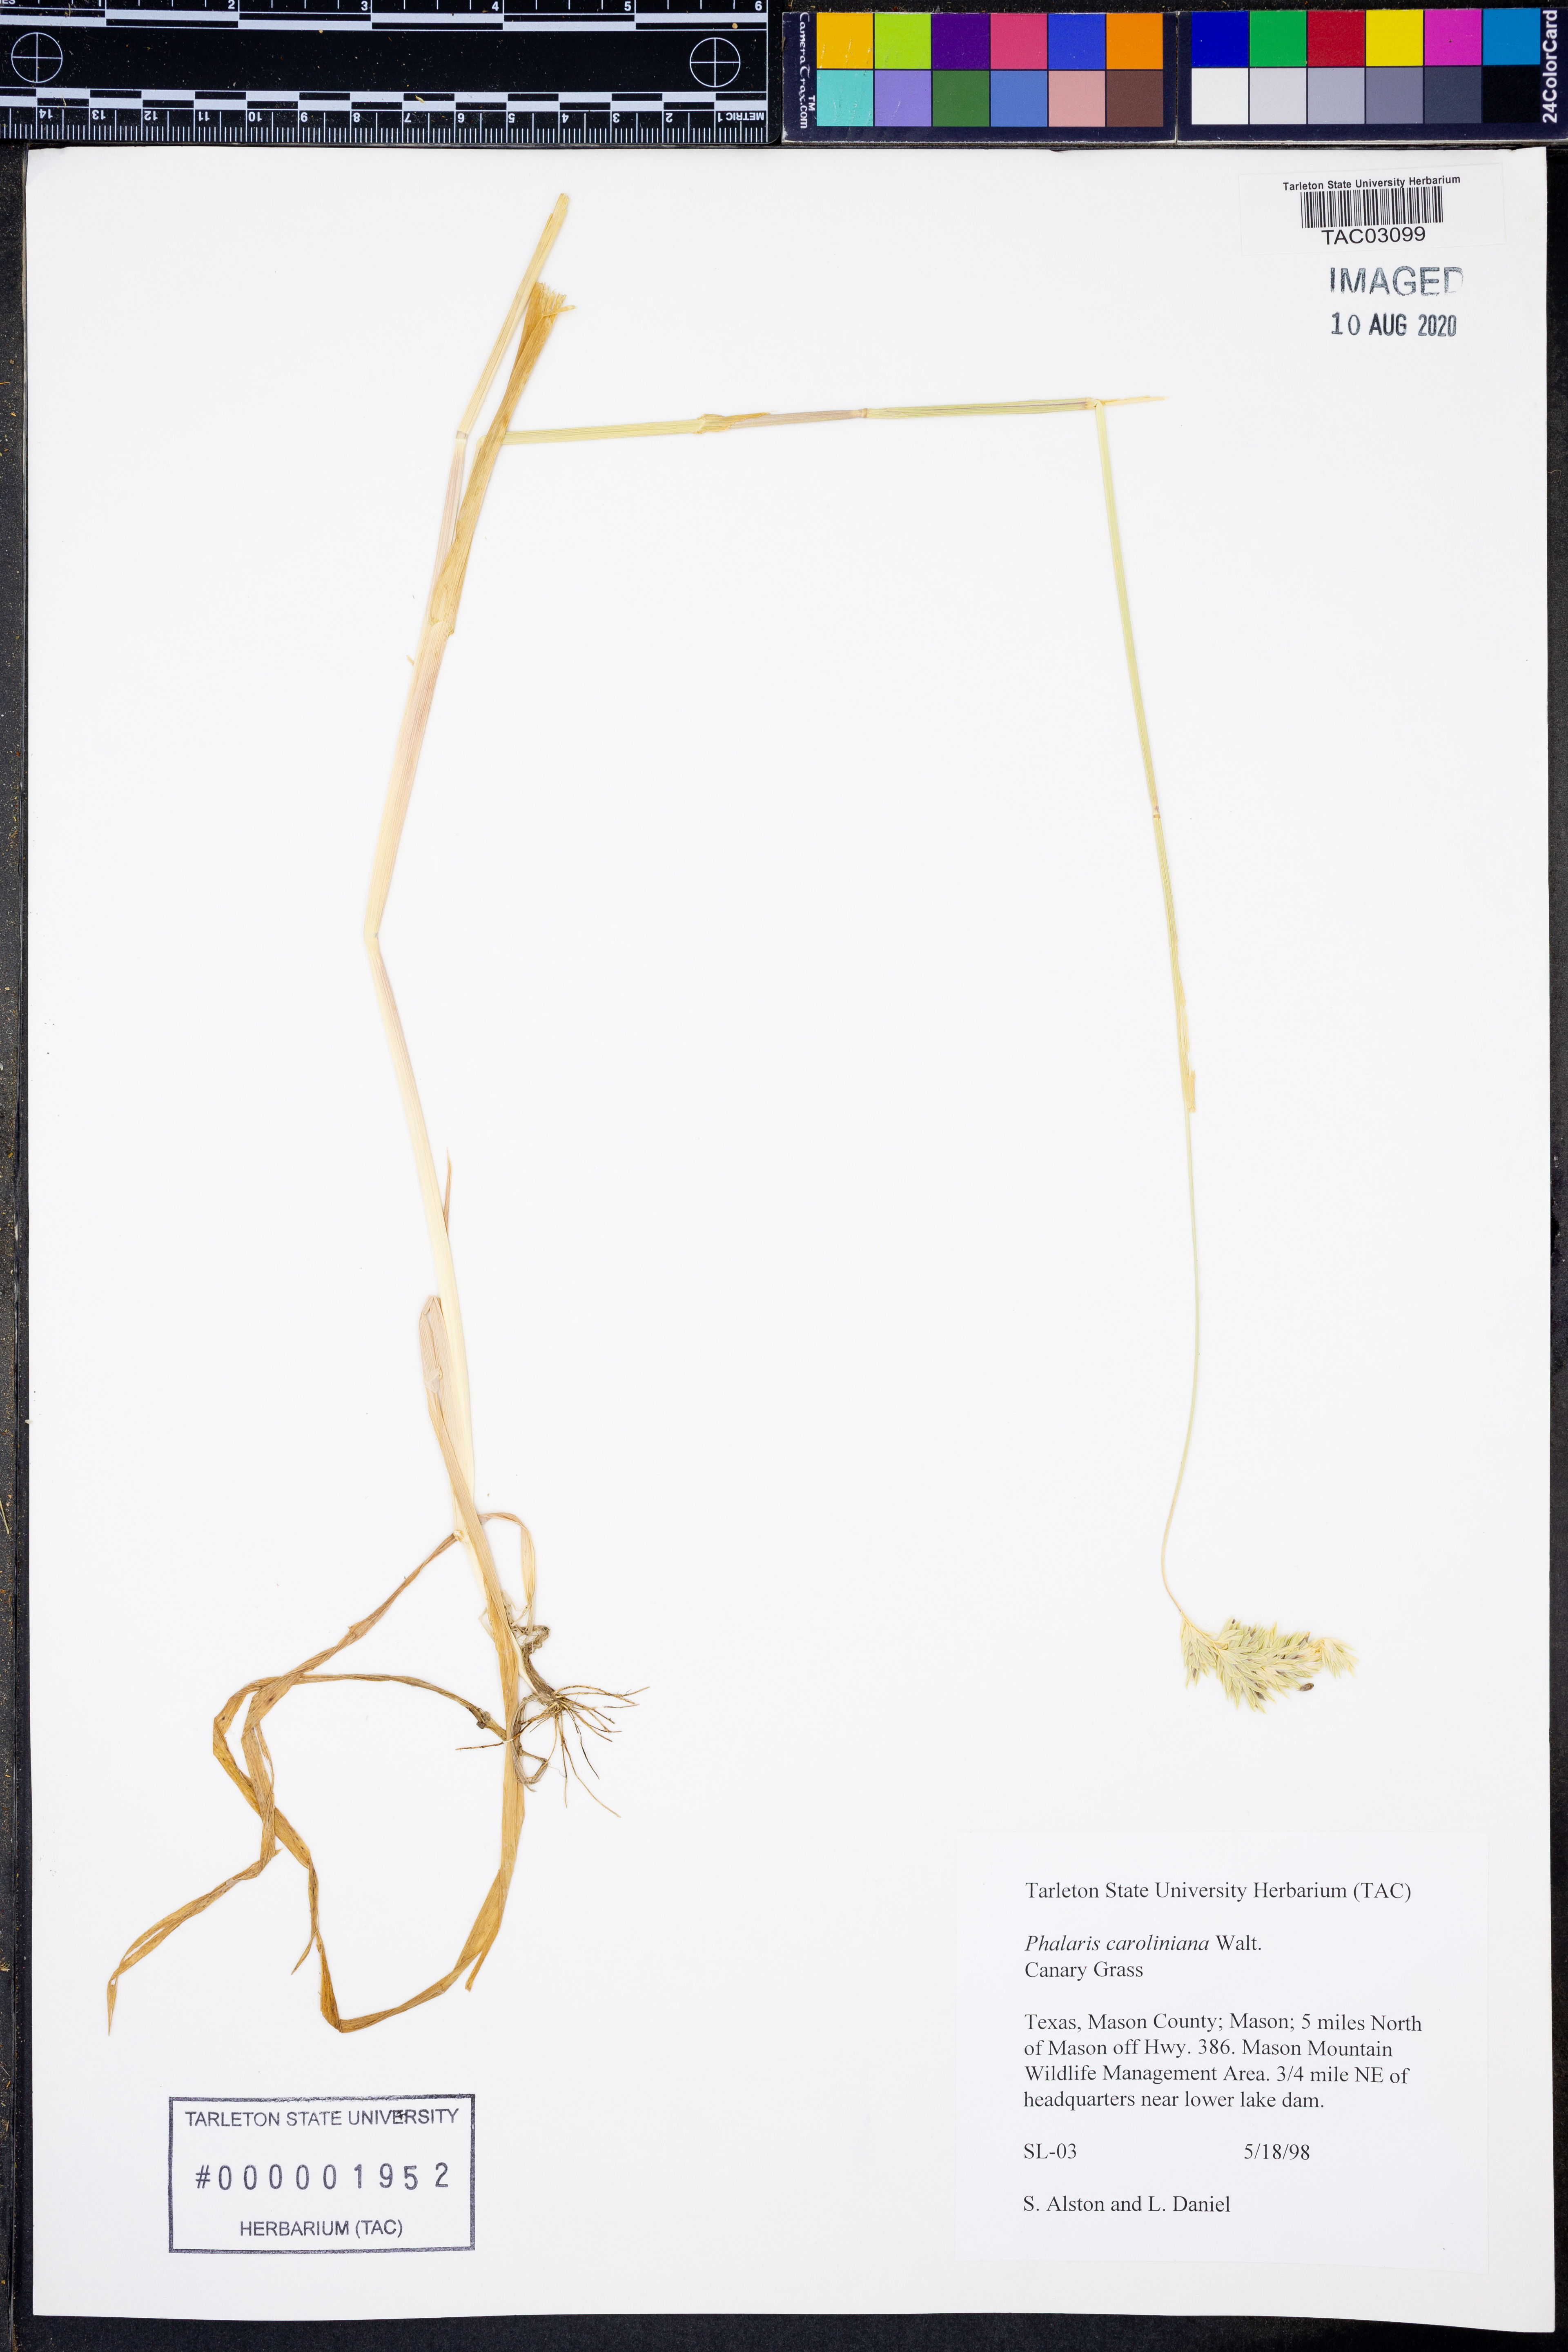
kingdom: Plantae
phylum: Tracheophyta
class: Liliopsida
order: Poales
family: Poaceae
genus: Phalaris
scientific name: Phalaris caroliniana
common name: May grass
